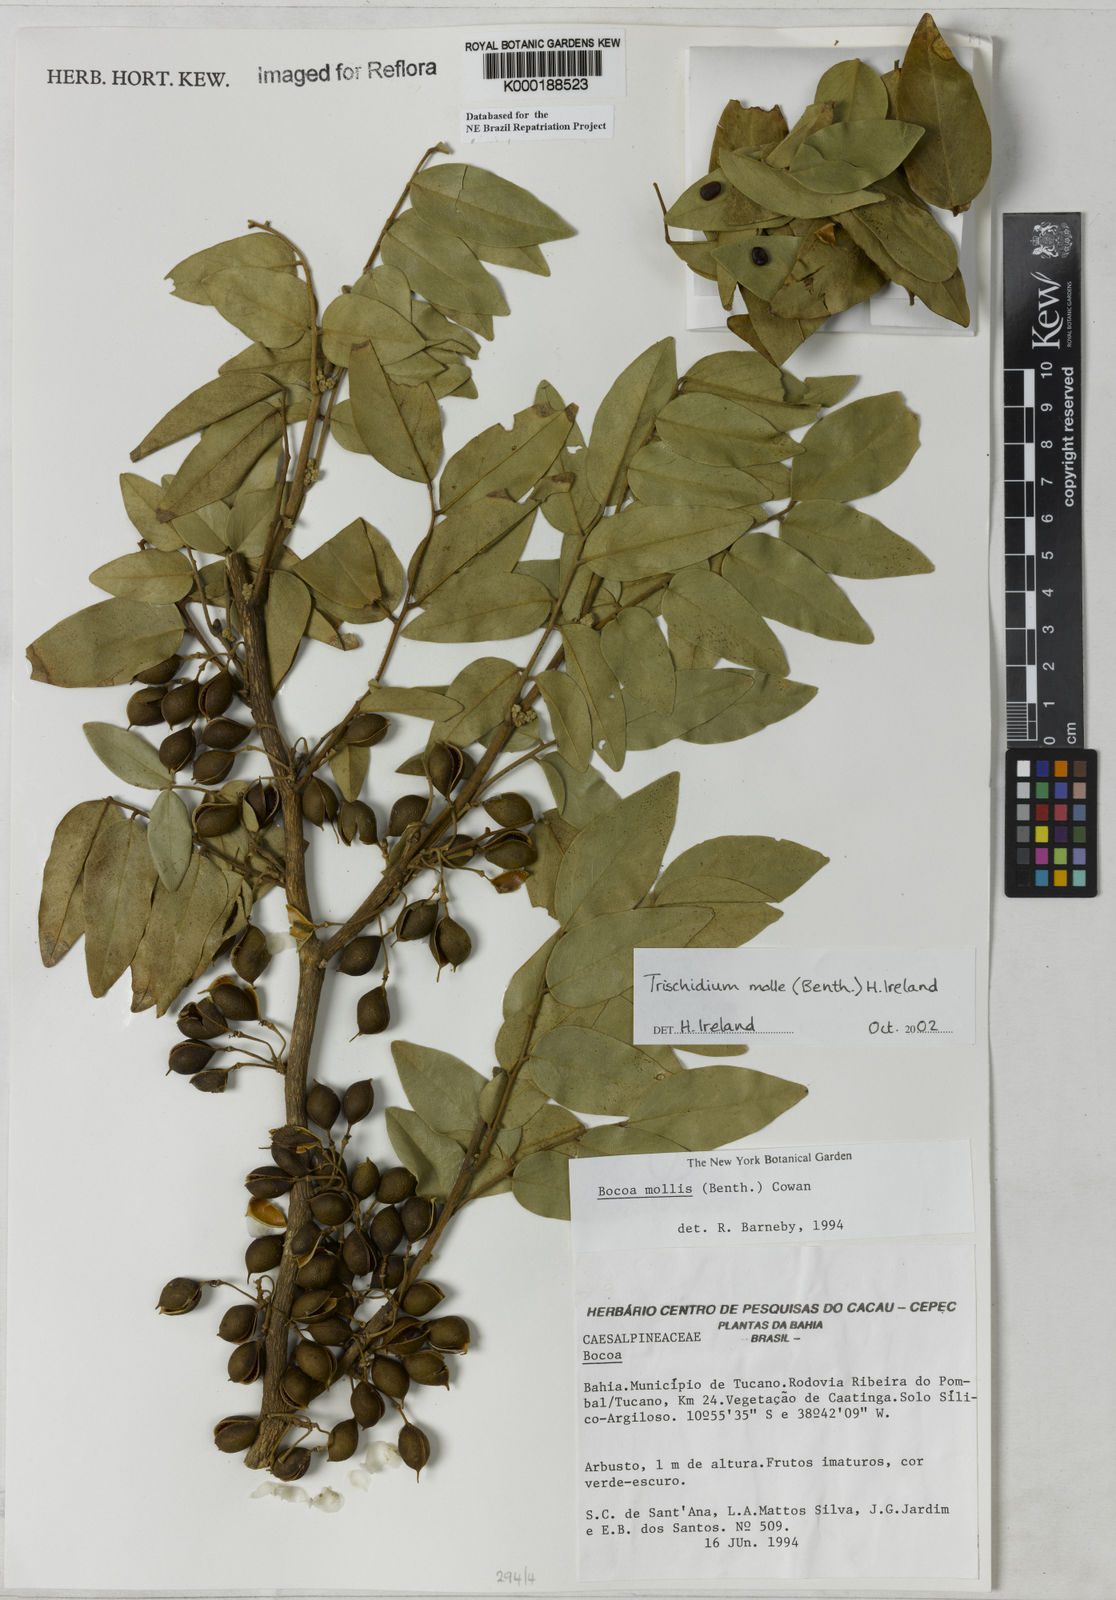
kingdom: Plantae
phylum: Tracheophyta
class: Magnoliopsida
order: Fabales
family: Fabaceae
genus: Trischidium
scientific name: Trischidium
